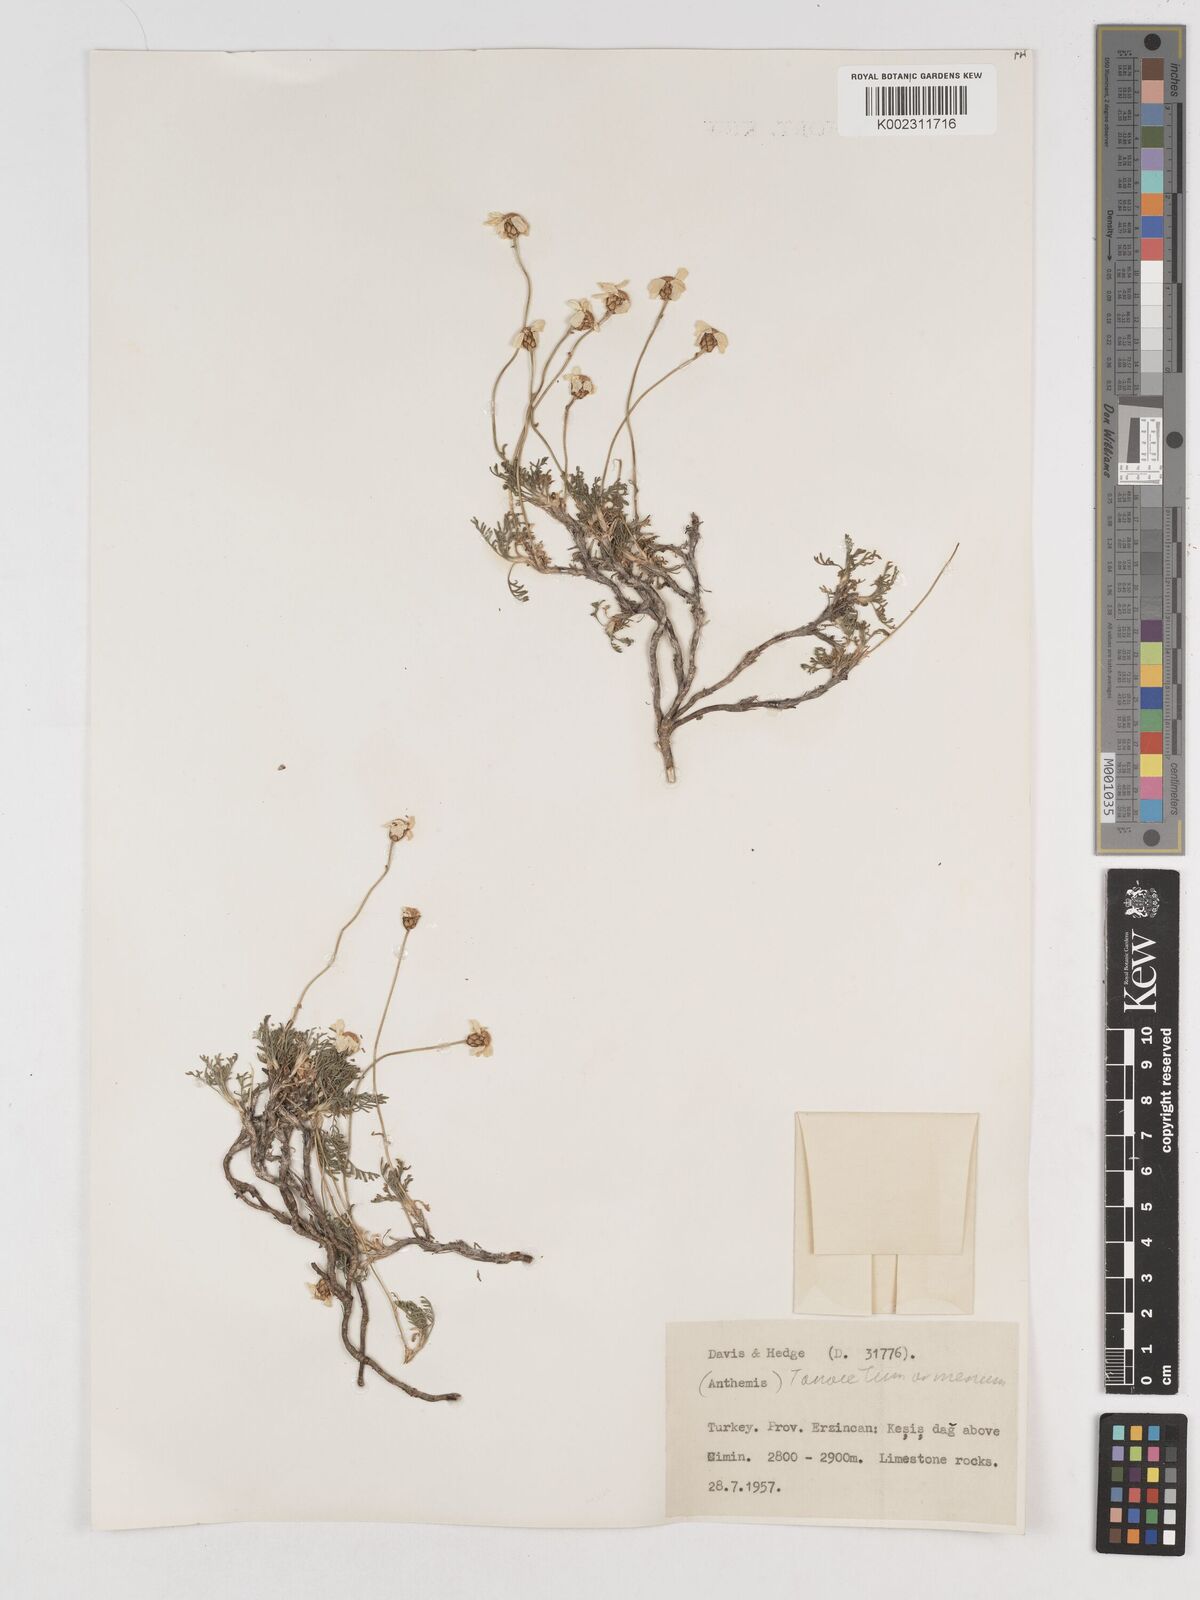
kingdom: Plantae
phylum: Tracheophyta
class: Magnoliopsida
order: Asterales
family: Asteraceae
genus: Tanacetum
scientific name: Tanacetum armenum
